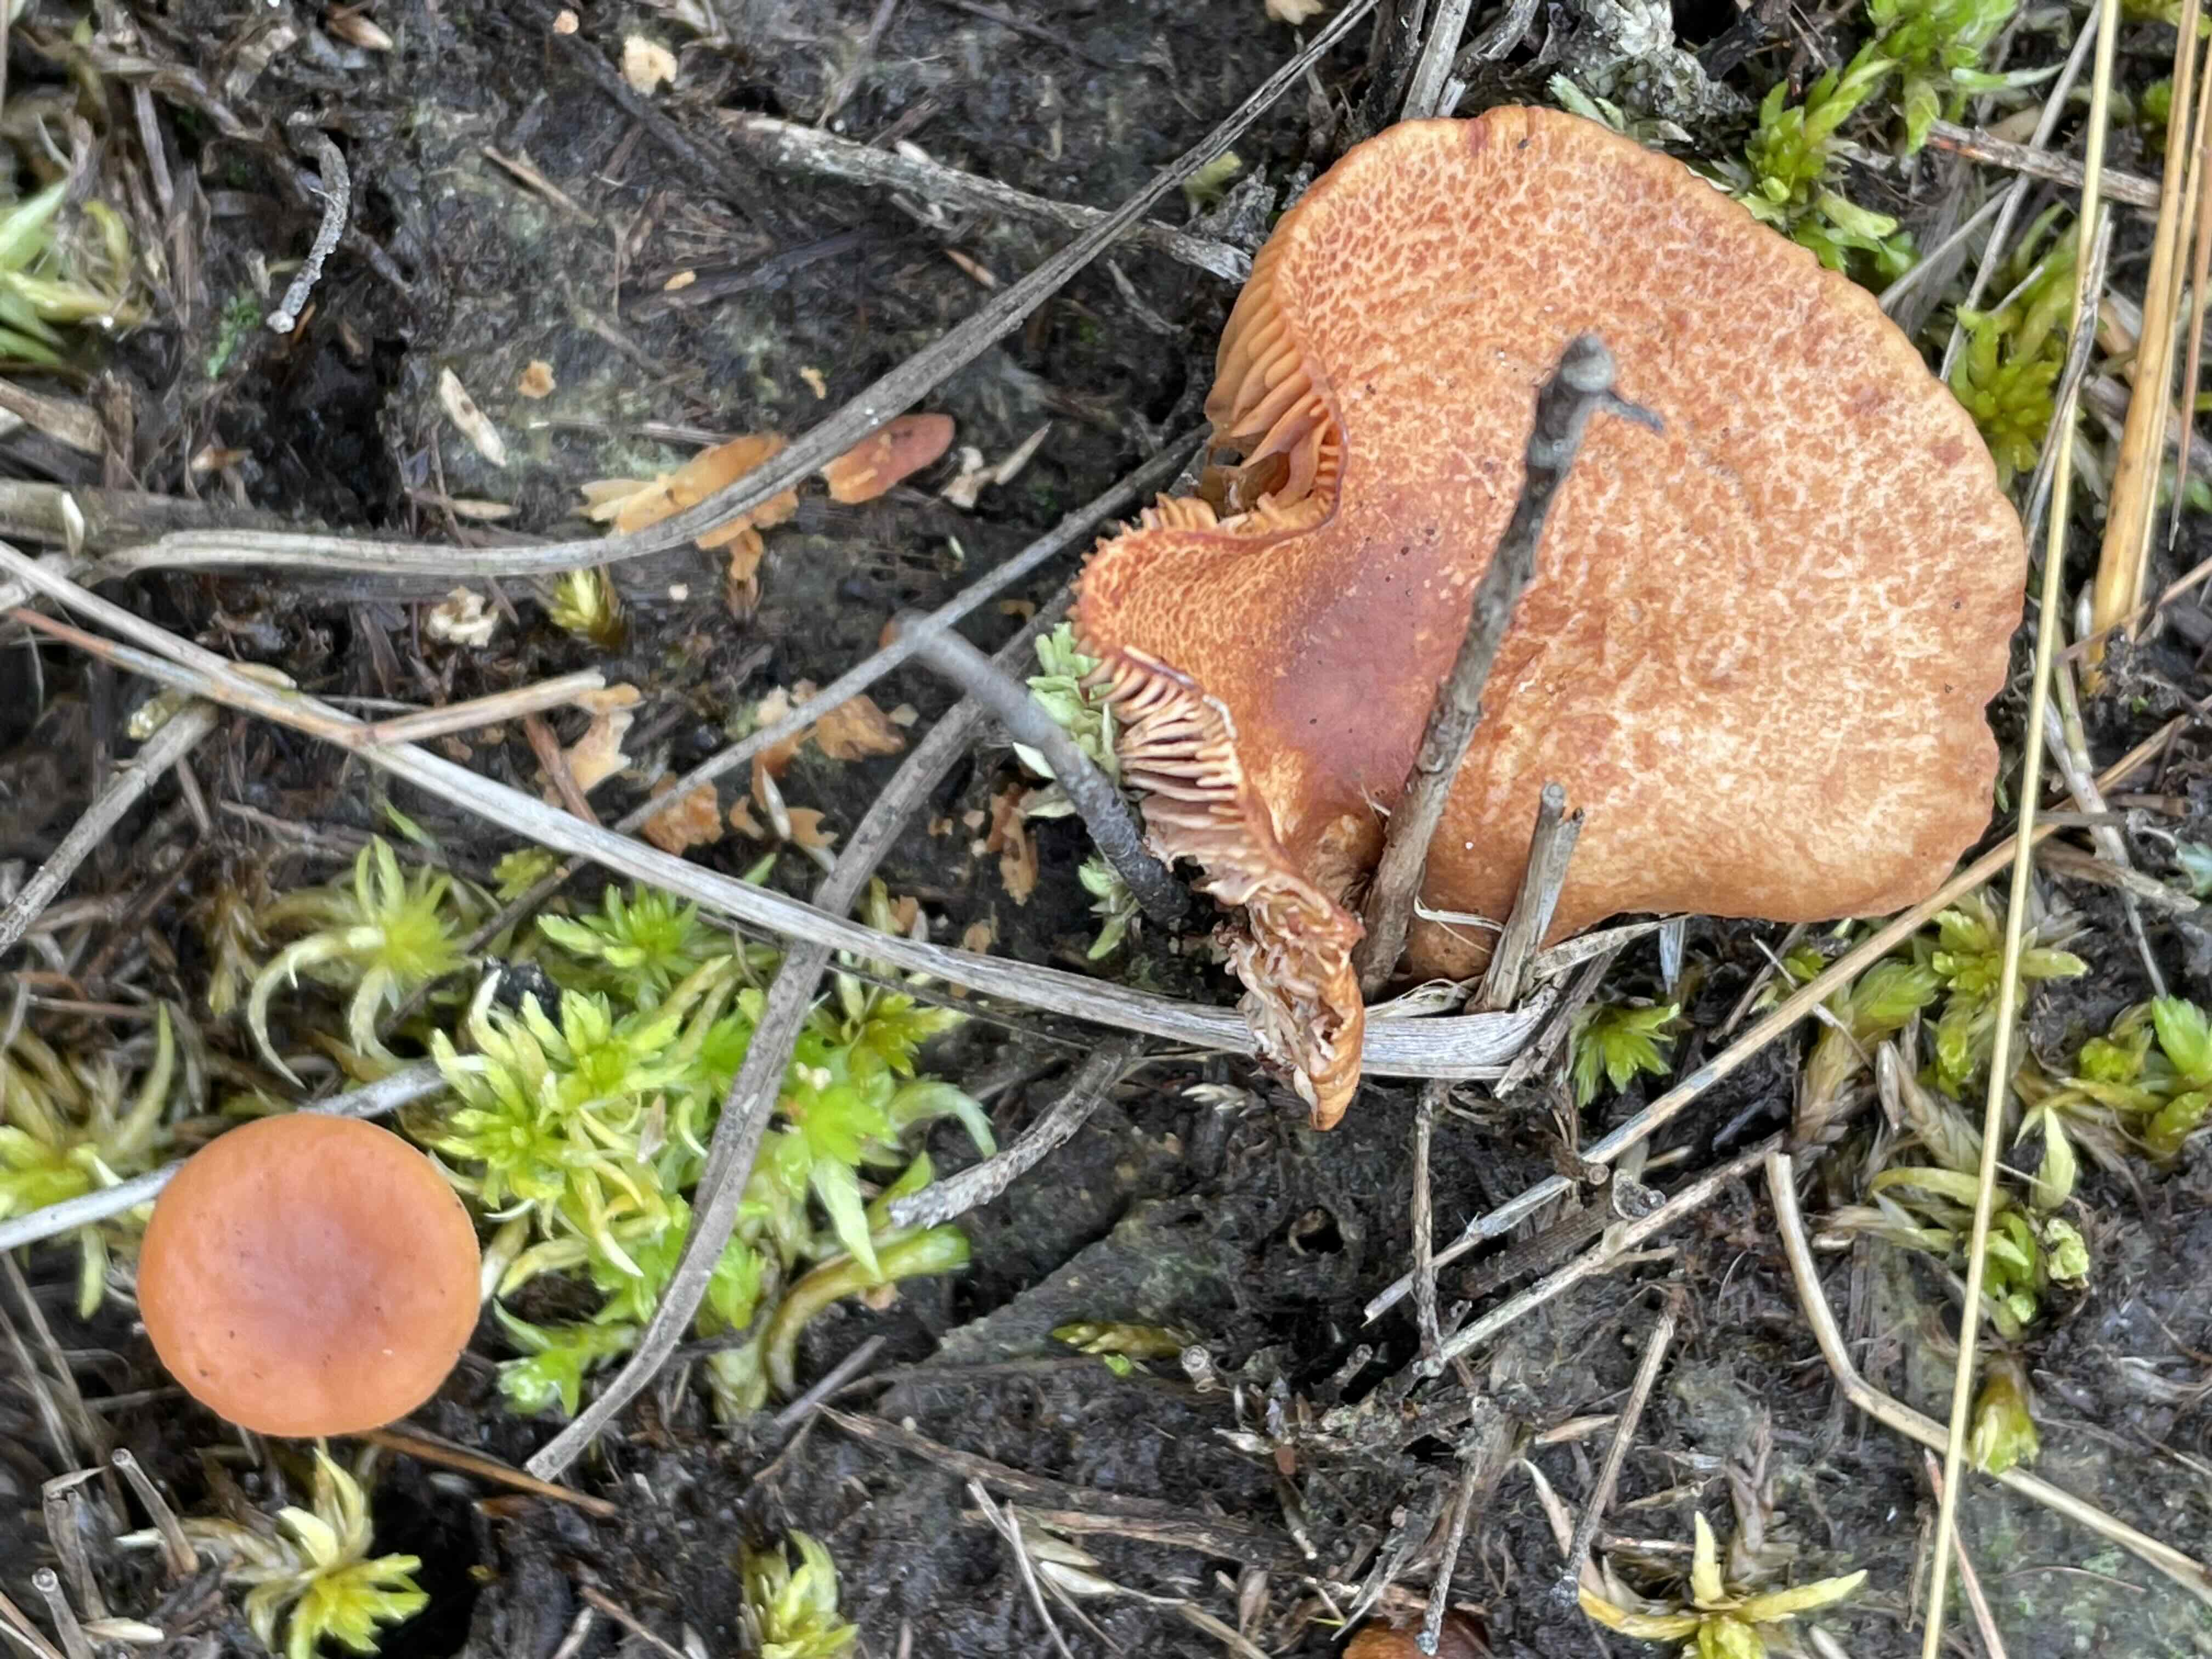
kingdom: Fungi
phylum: Basidiomycota
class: Agaricomycetes
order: Russulales
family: Russulaceae
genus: Lactarius
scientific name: Lactarius
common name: mælkehat
